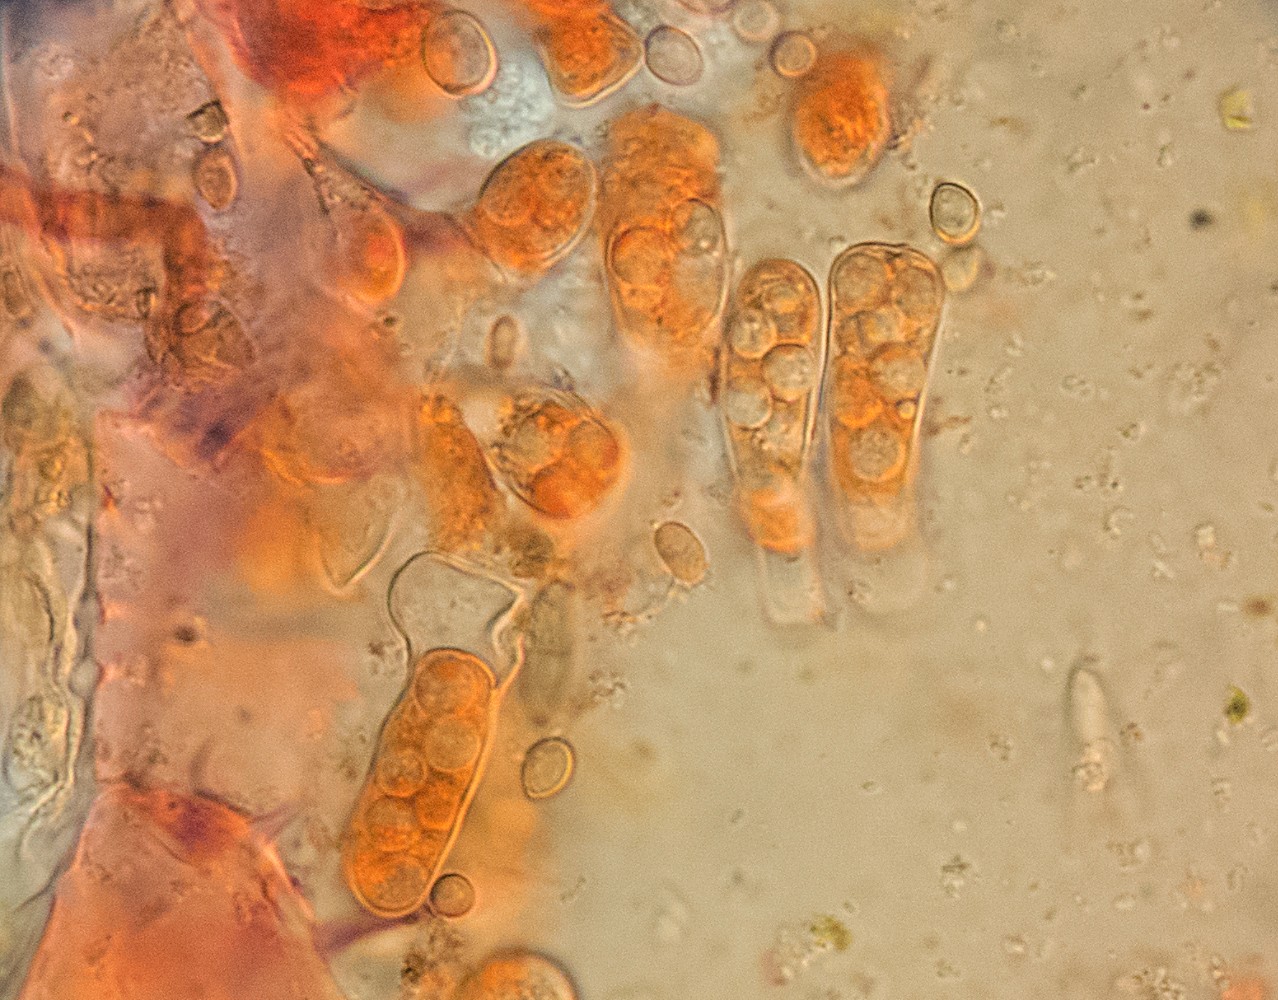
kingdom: Fungi
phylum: Ascomycota
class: Taphrinomycetes
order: Taphrinales
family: Taphrinaceae
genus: Taphrina
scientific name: Taphrina farlowii
